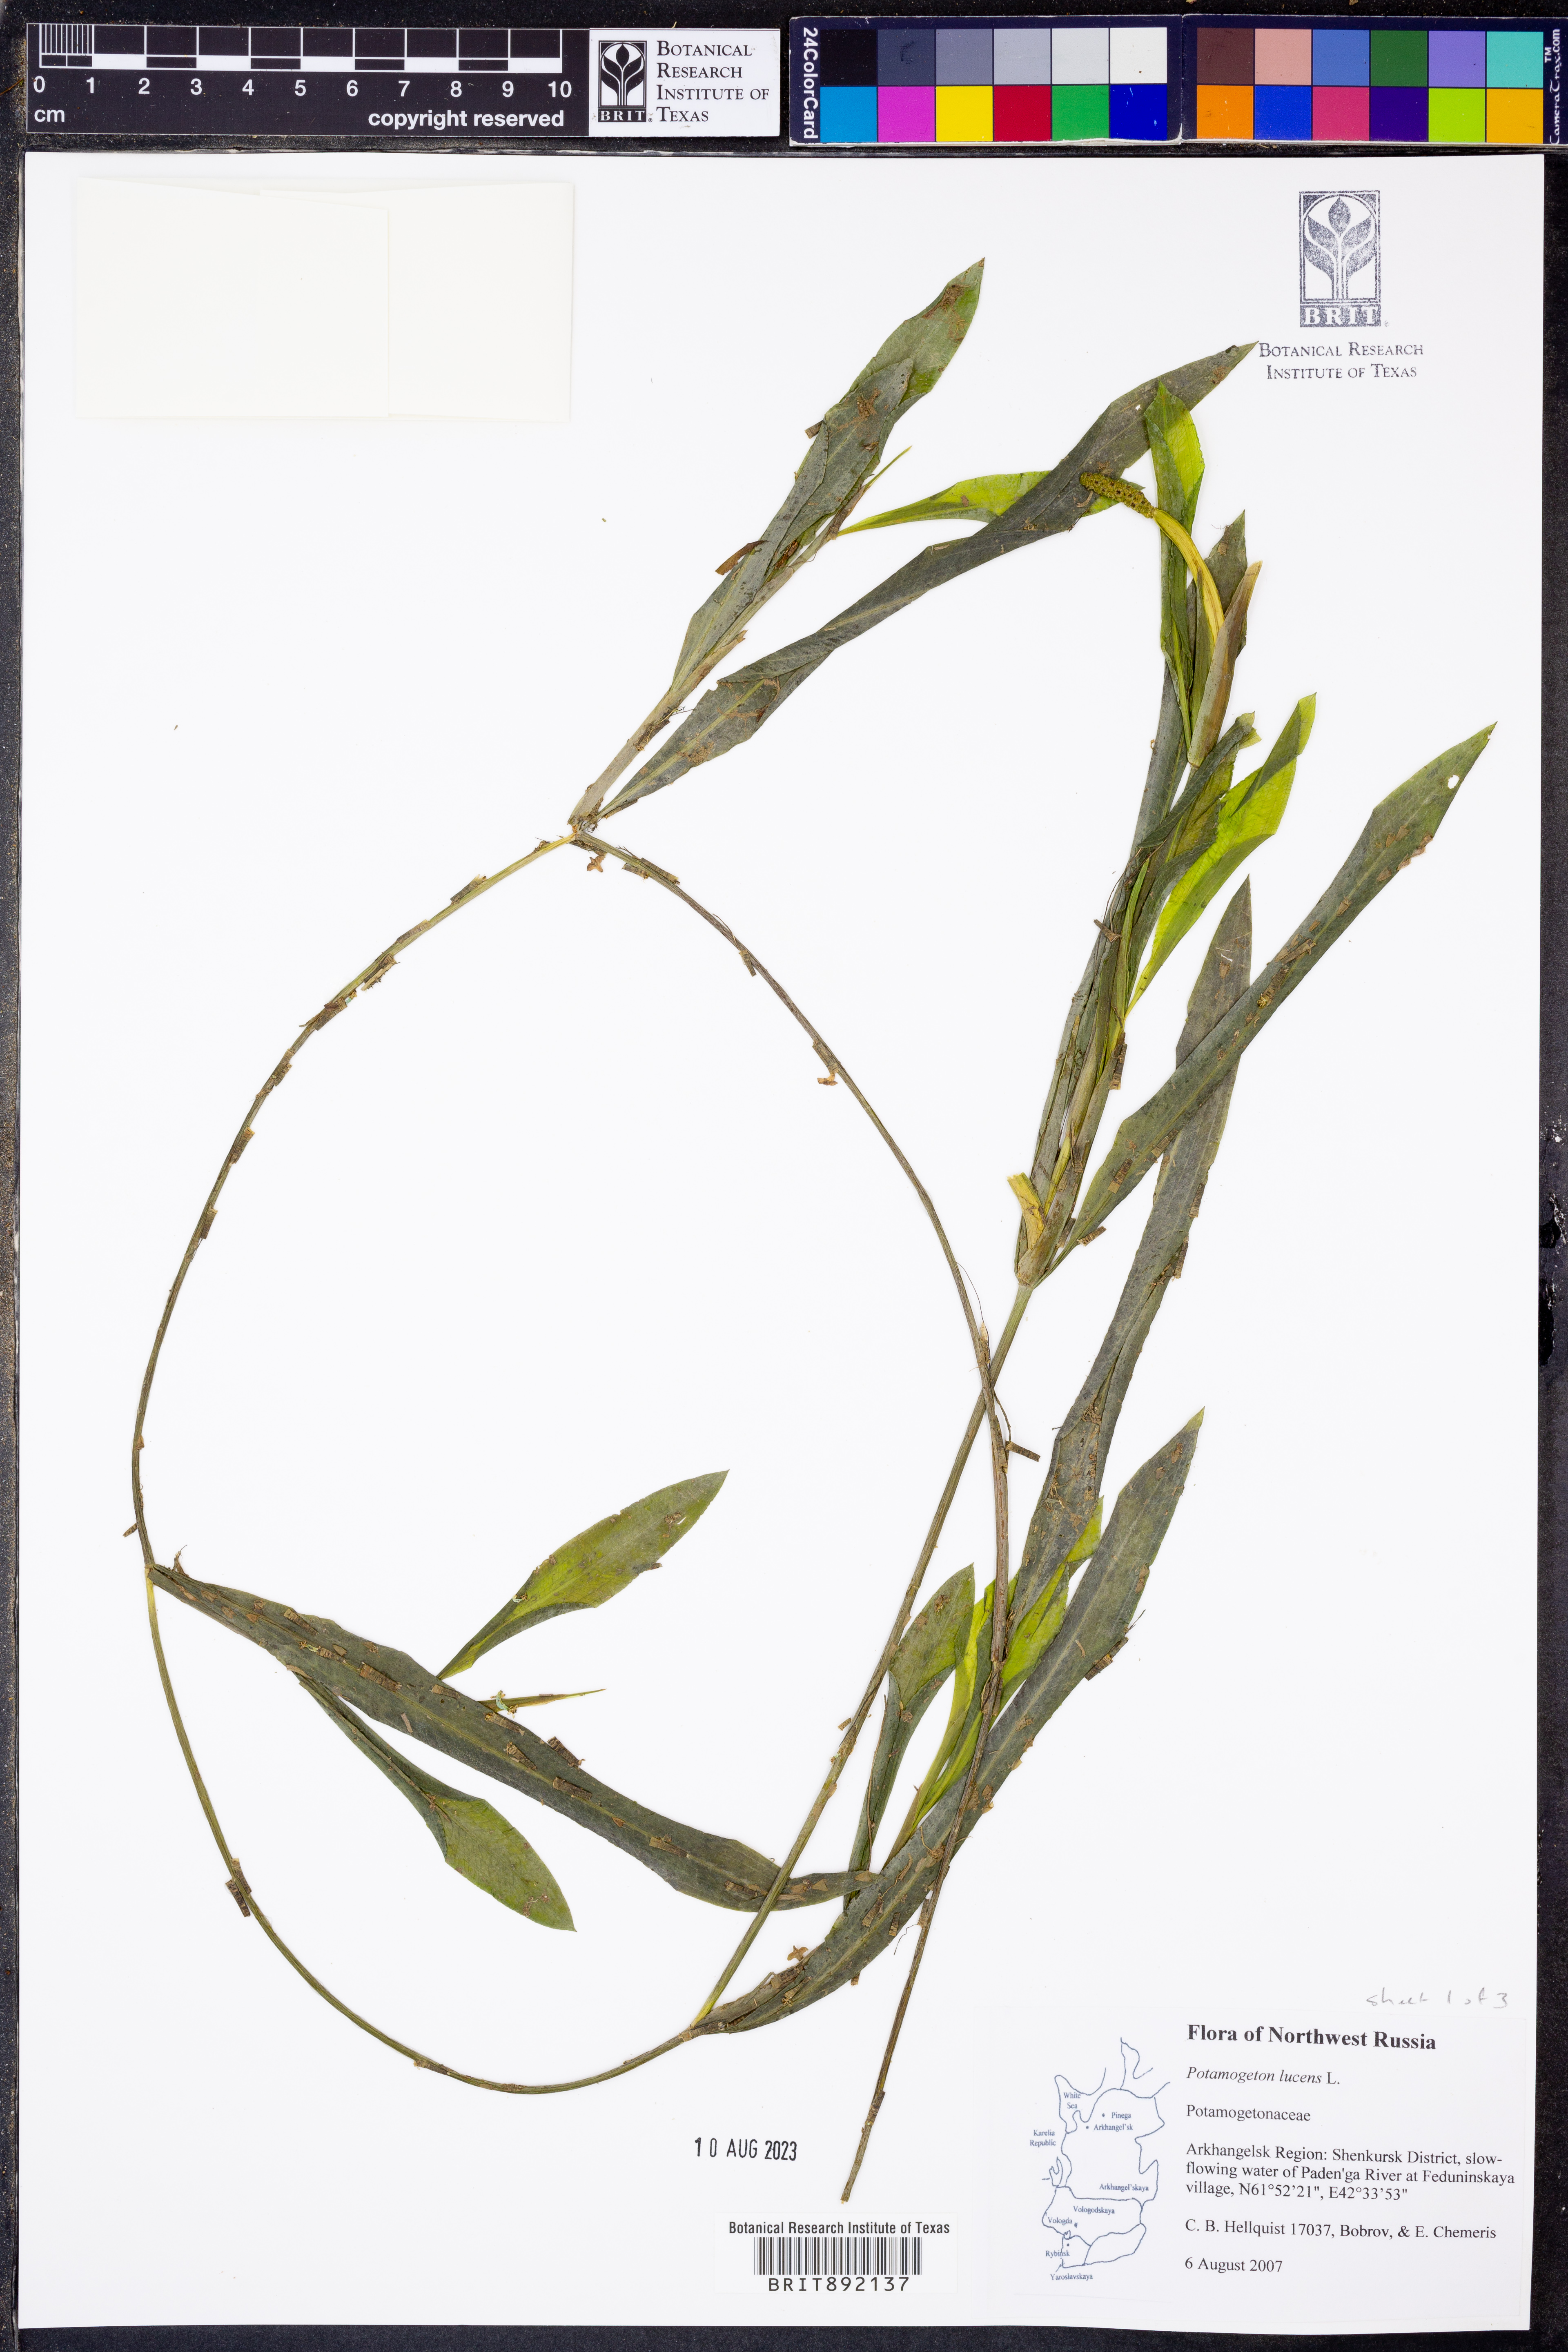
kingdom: Plantae
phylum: Tracheophyta
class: Liliopsida
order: Alismatales
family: Potamogetonaceae
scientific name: Potamogetonaceae
